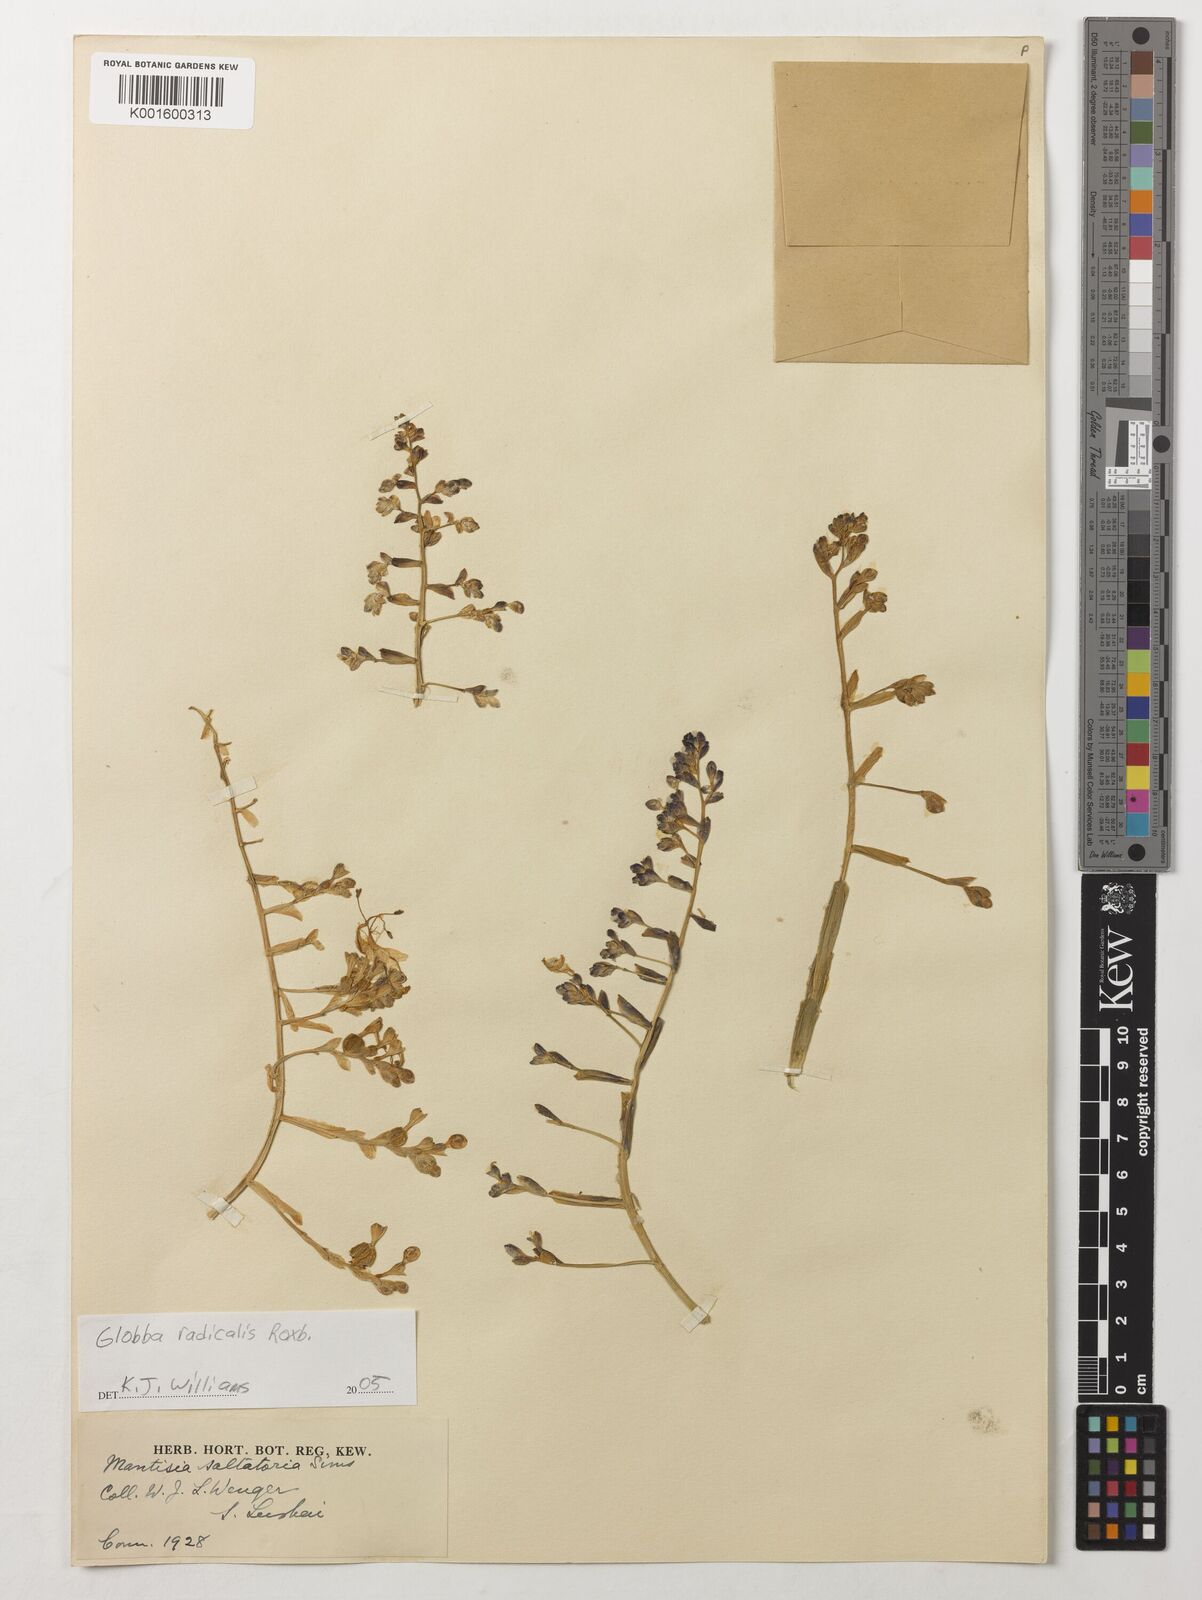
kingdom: Plantae
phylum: Tracheophyta
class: Liliopsida
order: Zingiberales
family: Zingiberaceae
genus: Globba
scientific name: Globba radicalis
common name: Dancing girl
